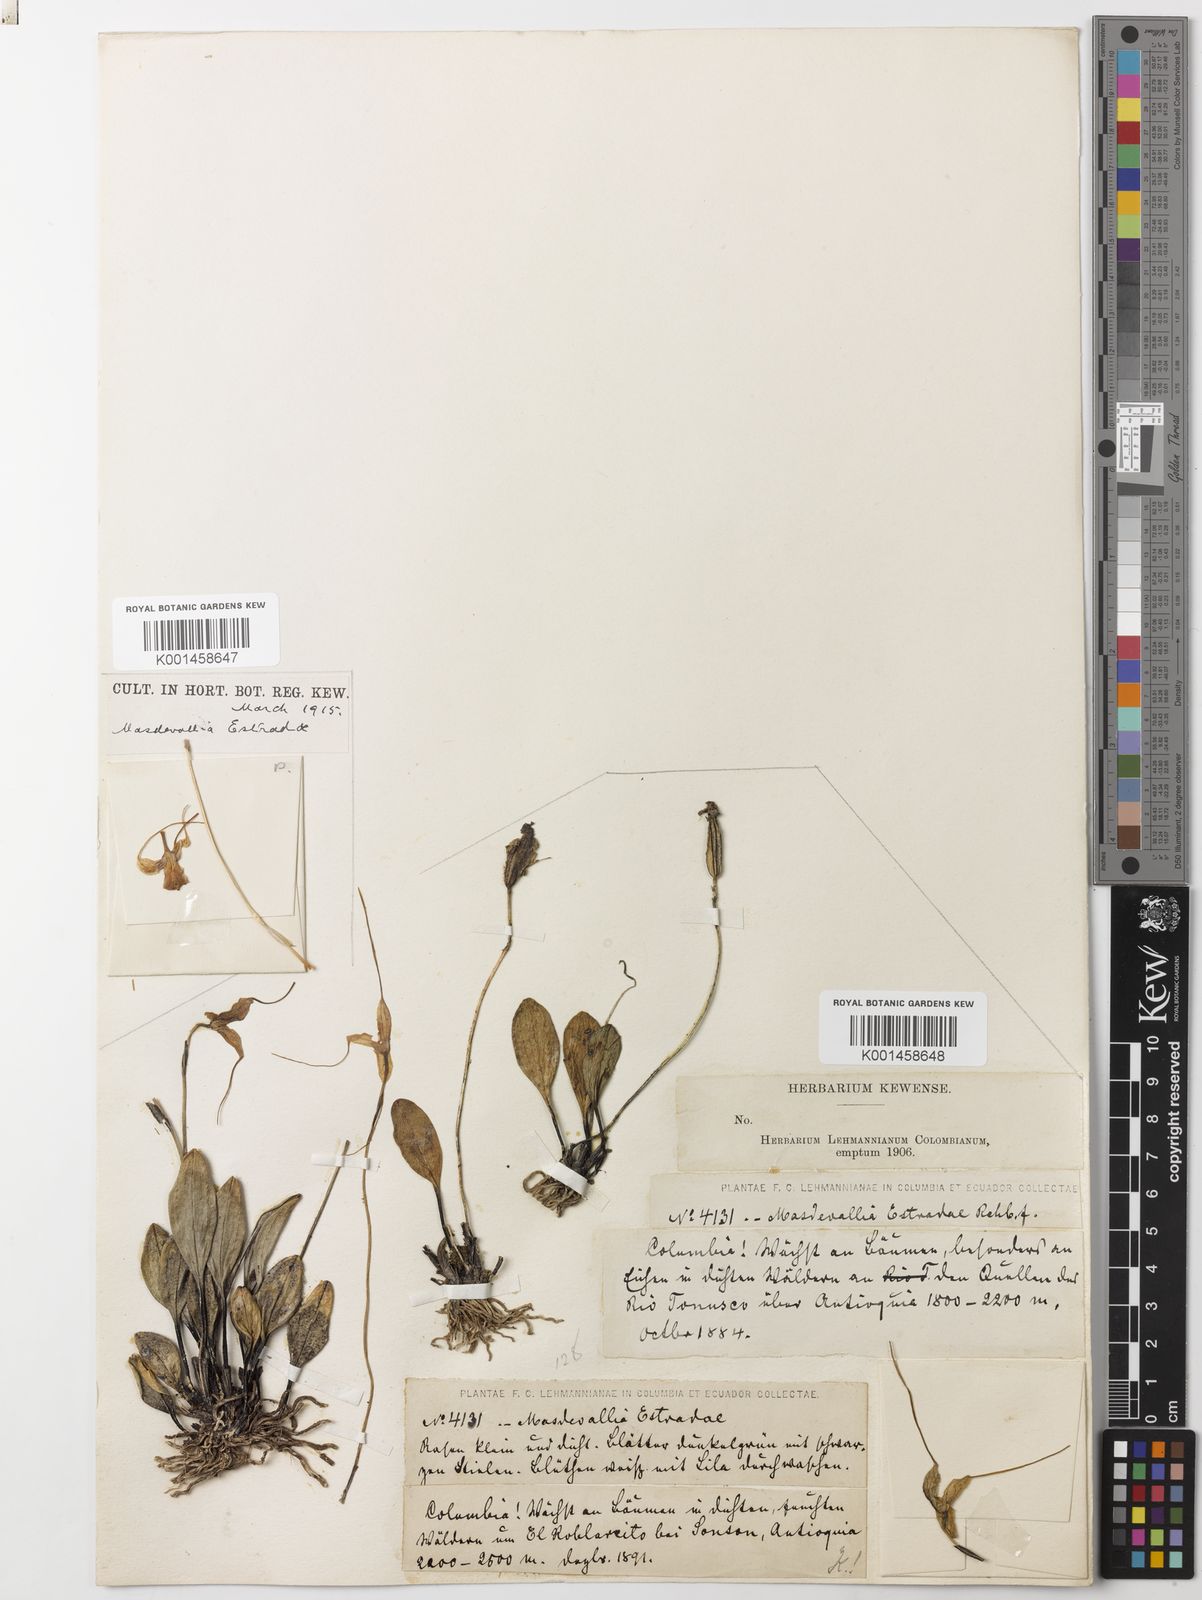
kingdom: Plantae
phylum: Tracheophyta
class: Liliopsida
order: Asparagales
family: Orchidaceae
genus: Masdevallia
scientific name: Masdevallia estradae
